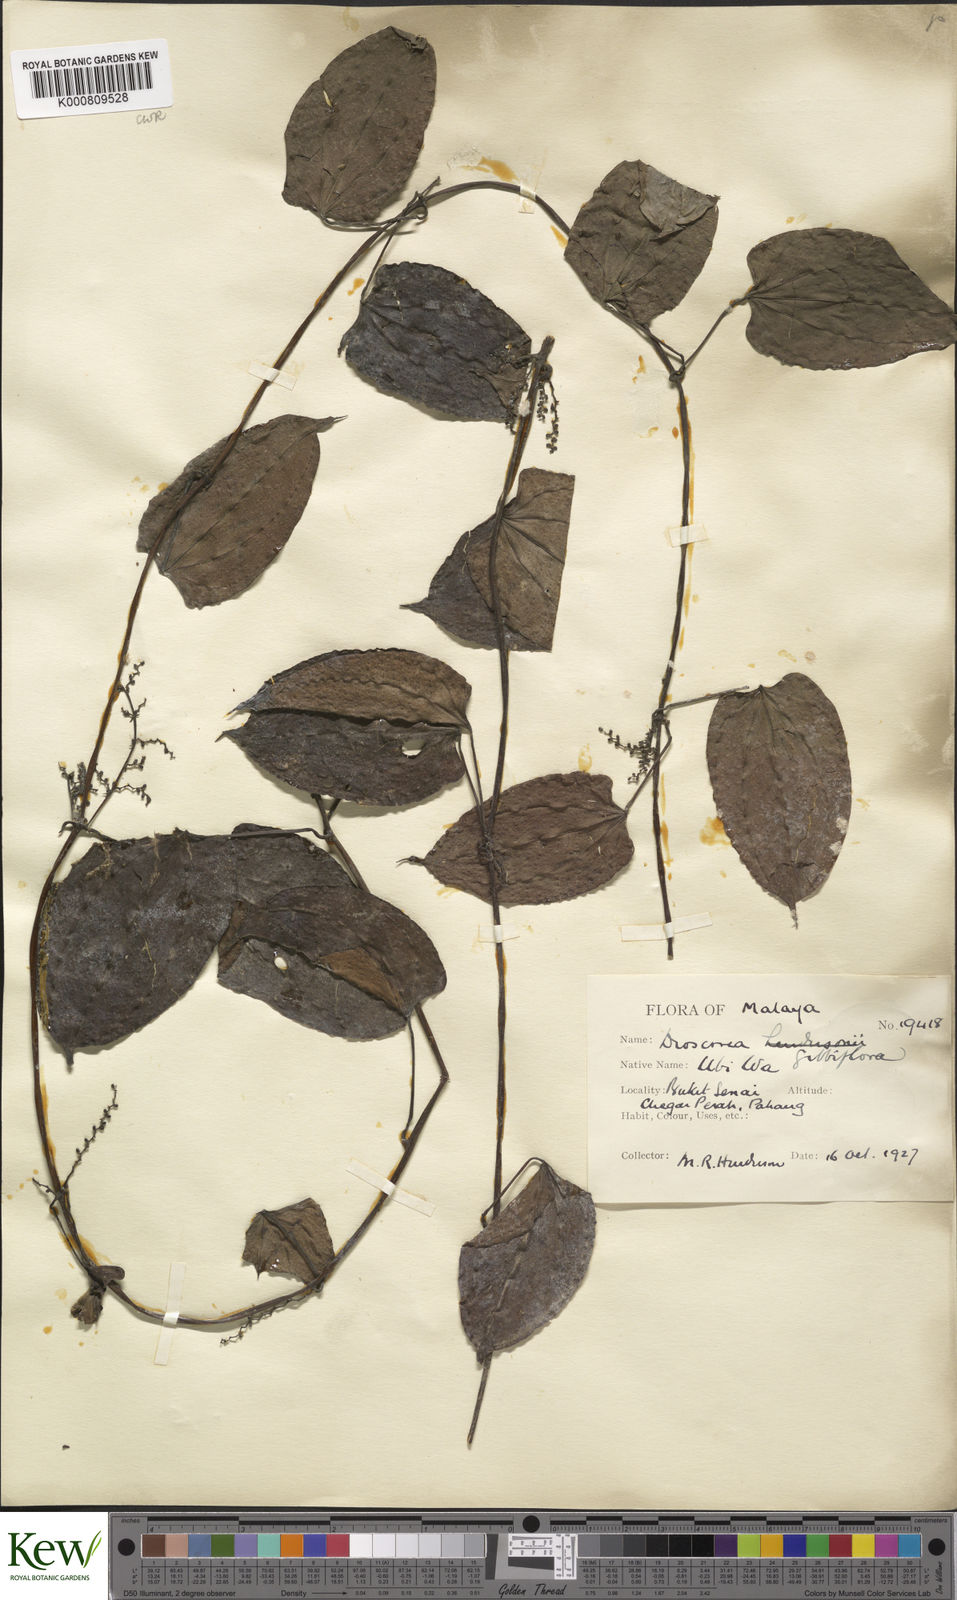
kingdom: Plantae
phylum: Tracheophyta
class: Liliopsida
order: Dioscoreales
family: Dioscoreaceae
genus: Dioscorea
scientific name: Dioscorea filiformis
